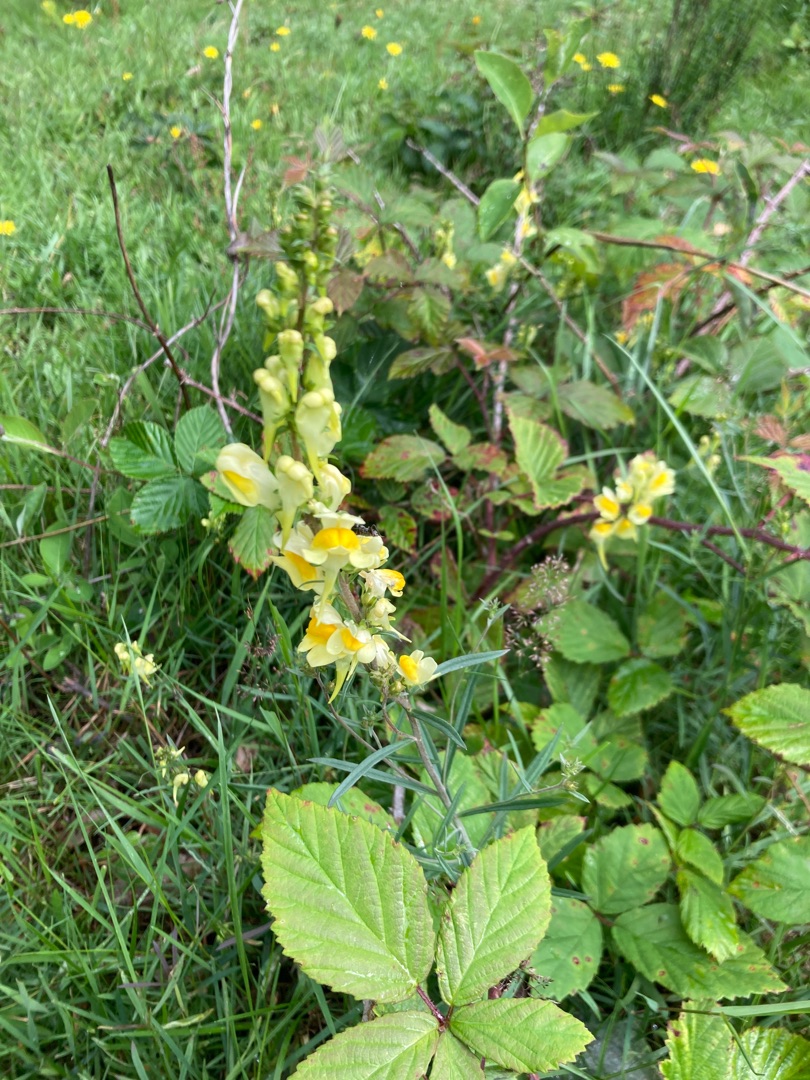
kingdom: Plantae
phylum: Tracheophyta
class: Magnoliopsida
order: Lamiales
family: Plantaginaceae
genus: Linaria
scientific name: Linaria vulgaris
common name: Almindelig torskemund
